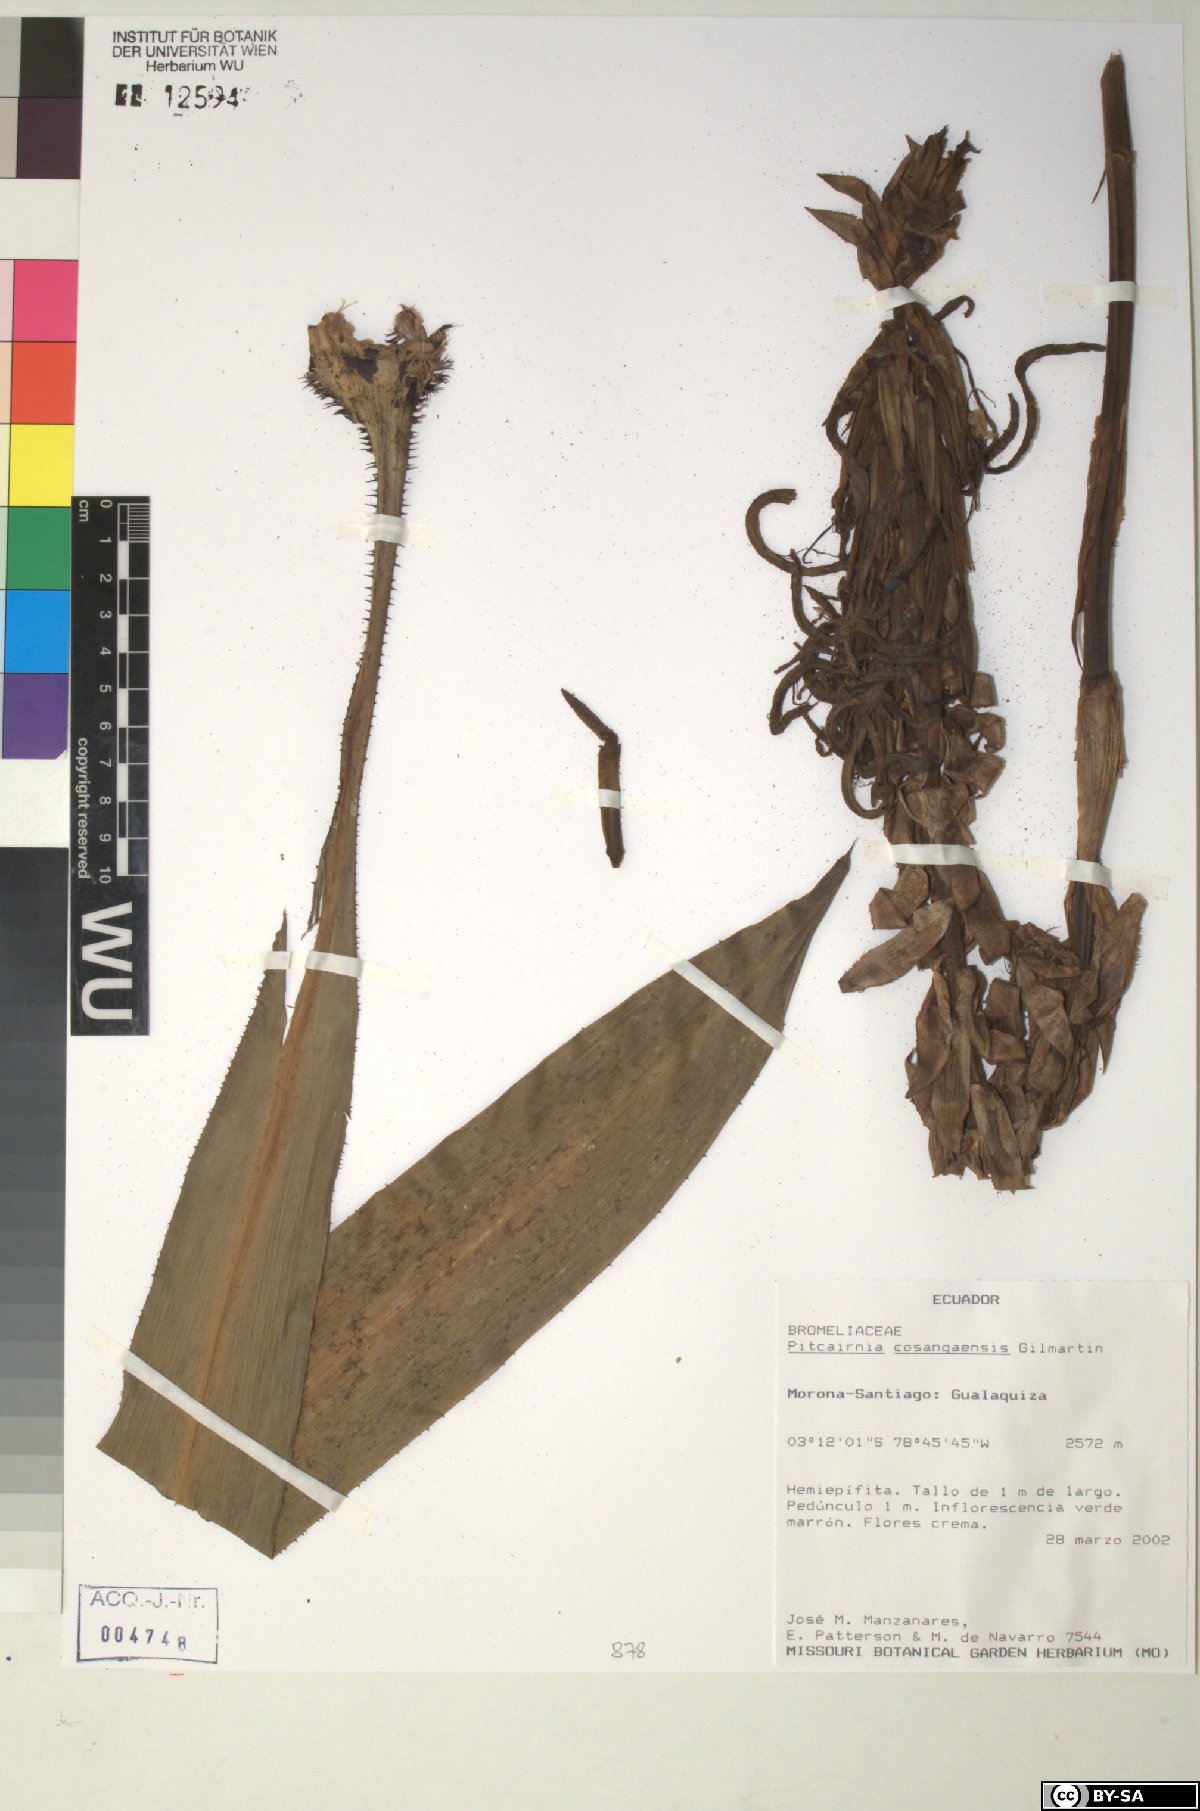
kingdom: Plantae
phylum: Tracheophyta
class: Liliopsida
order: Poales
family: Bromeliaceae
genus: Pitcairnia
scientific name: Pitcairnia cosangaensis
